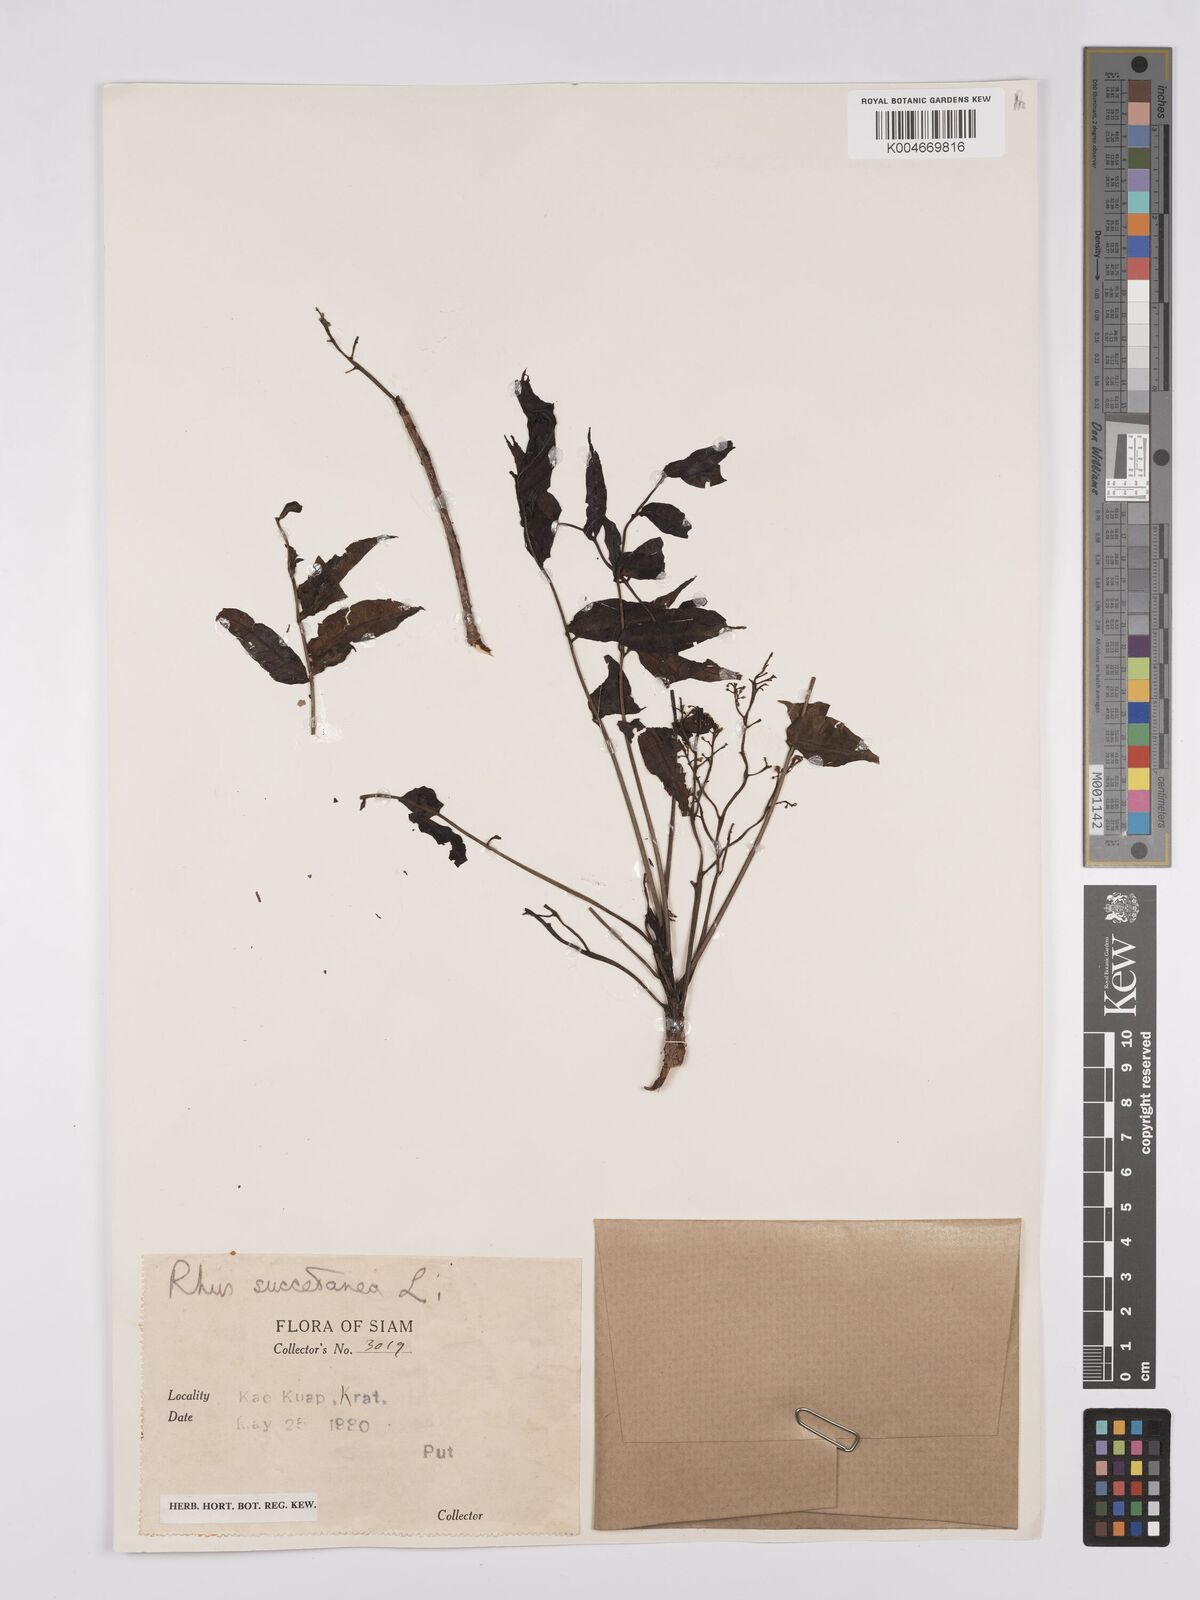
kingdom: Plantae
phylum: Tracheophyta
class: Magnoliopsida
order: Sapindales
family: Anacardiaceae
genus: Toxicodendron
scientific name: Toxicodendron succedaneum
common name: Wax tree
